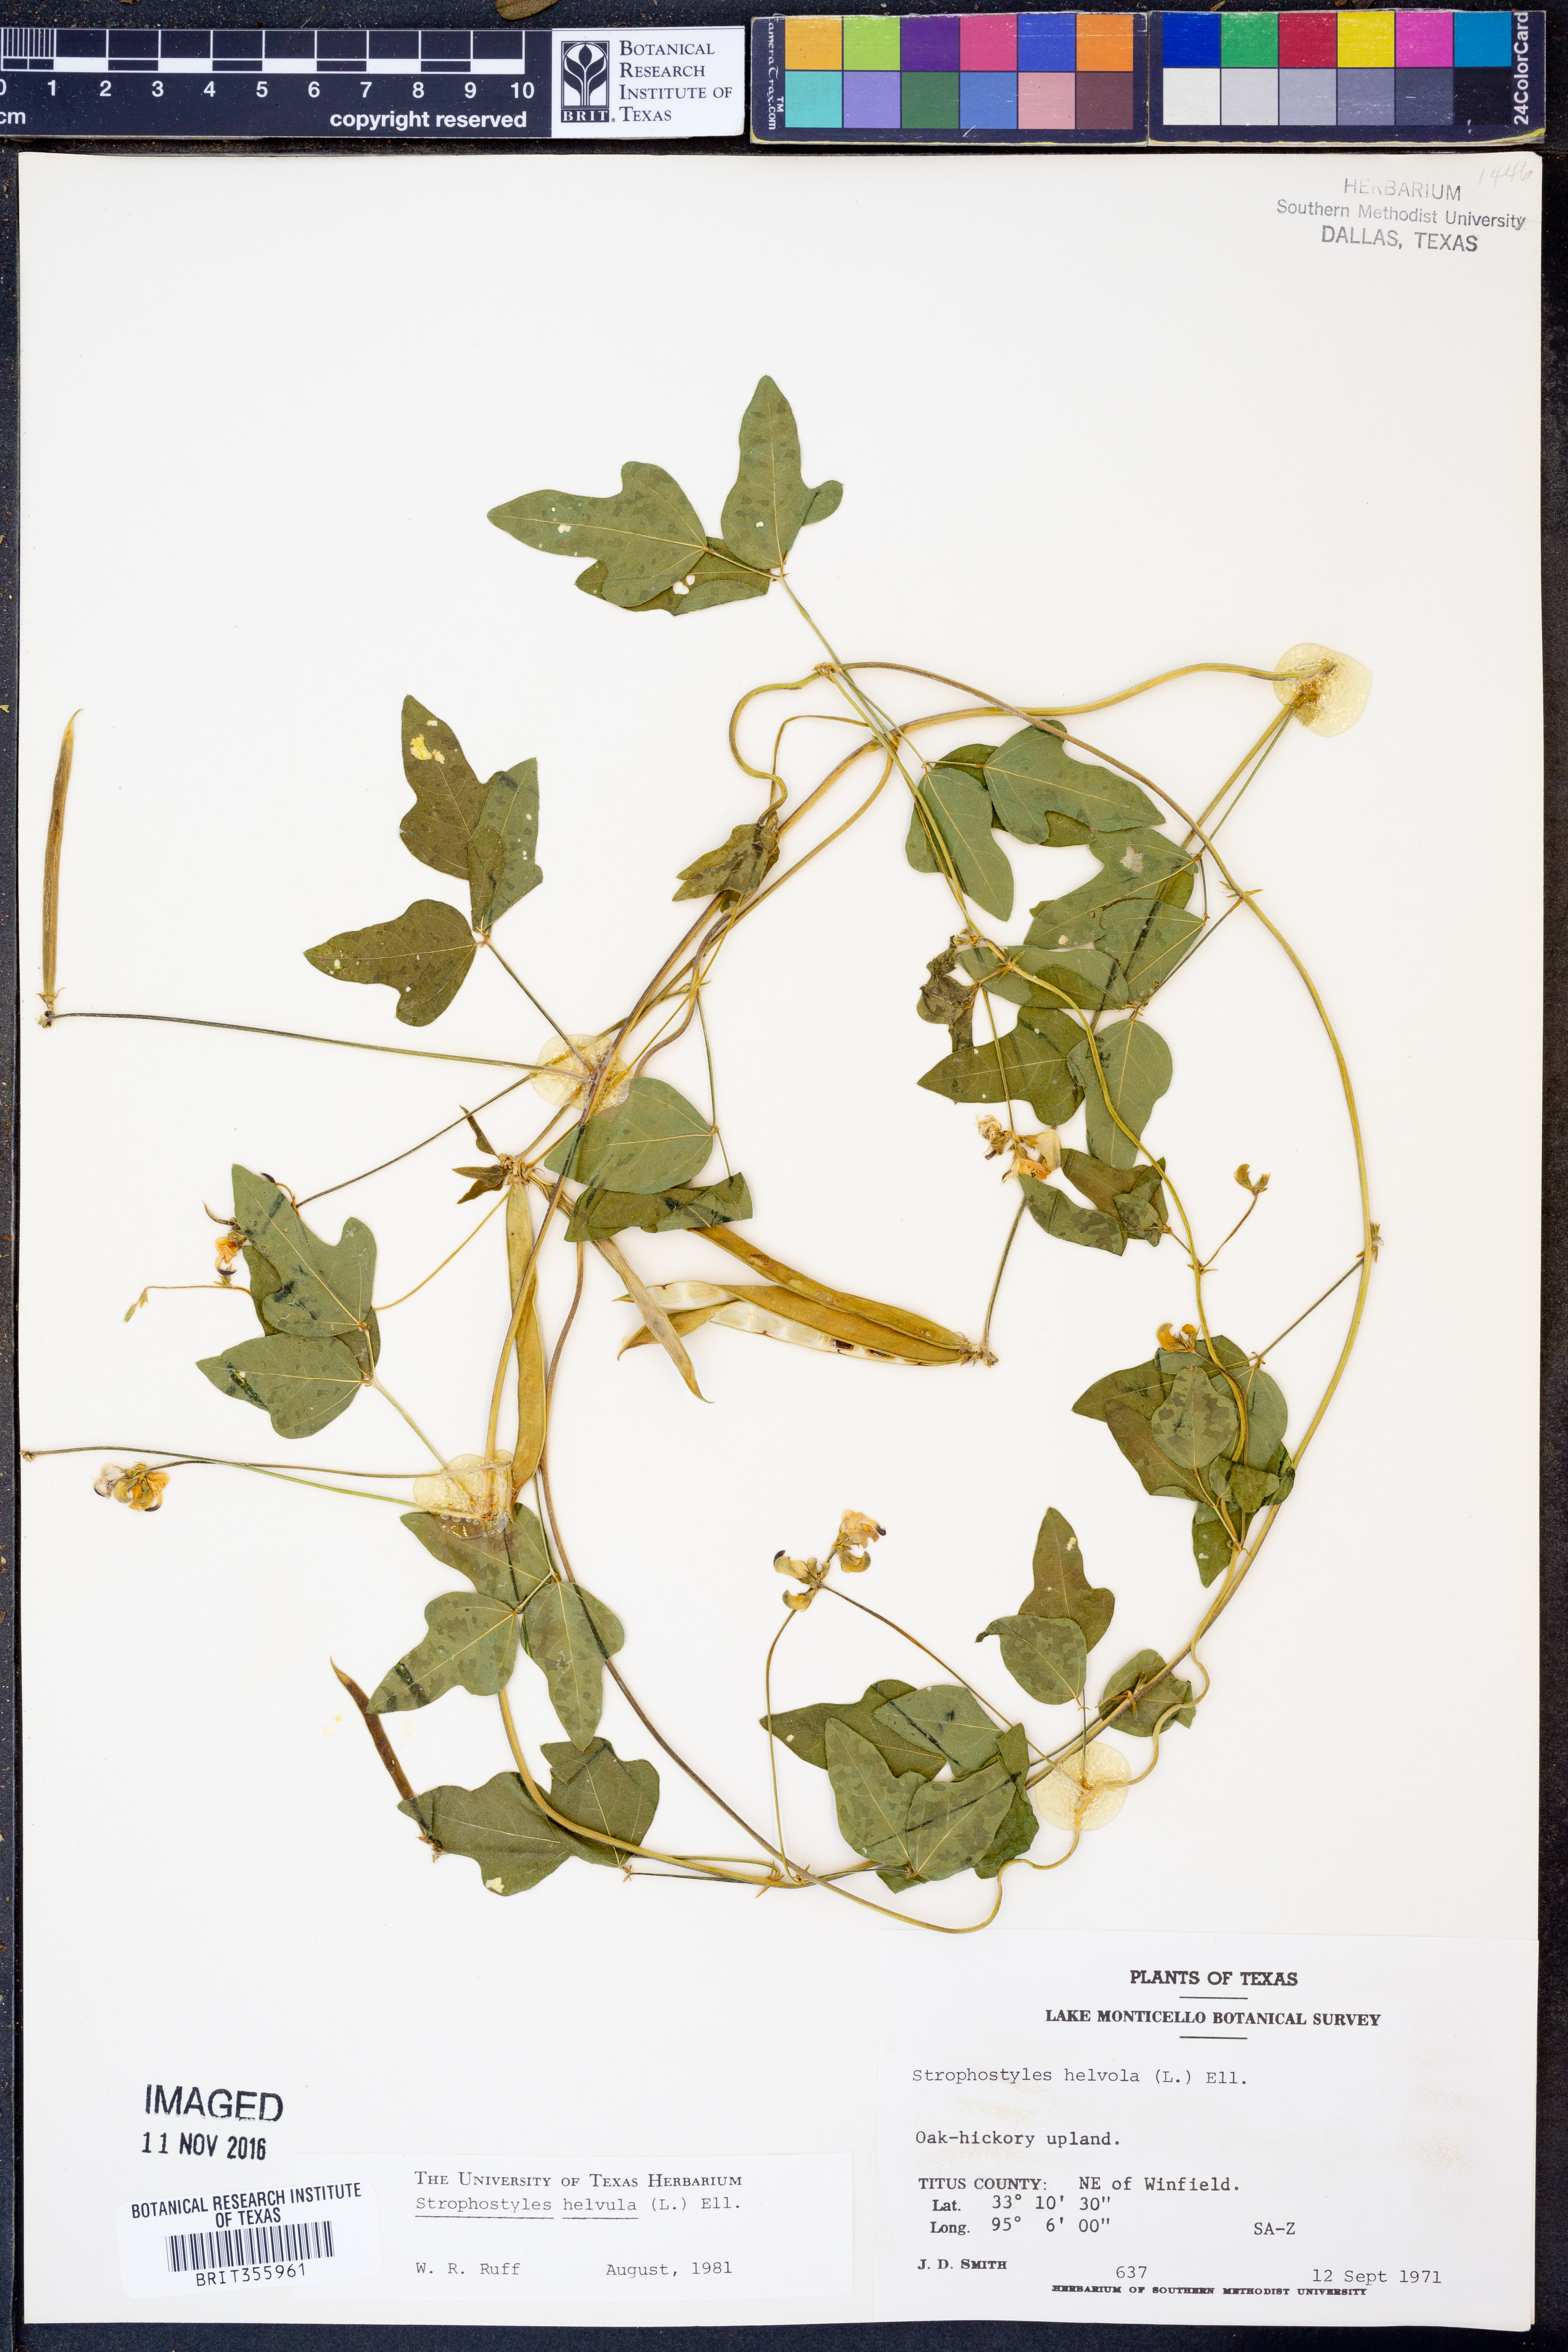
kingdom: Plantae
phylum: Tracheophyta
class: Magnoliopsida
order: Fabales
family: Fabaceae
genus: Strophostyles
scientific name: Strophostyles helvula
